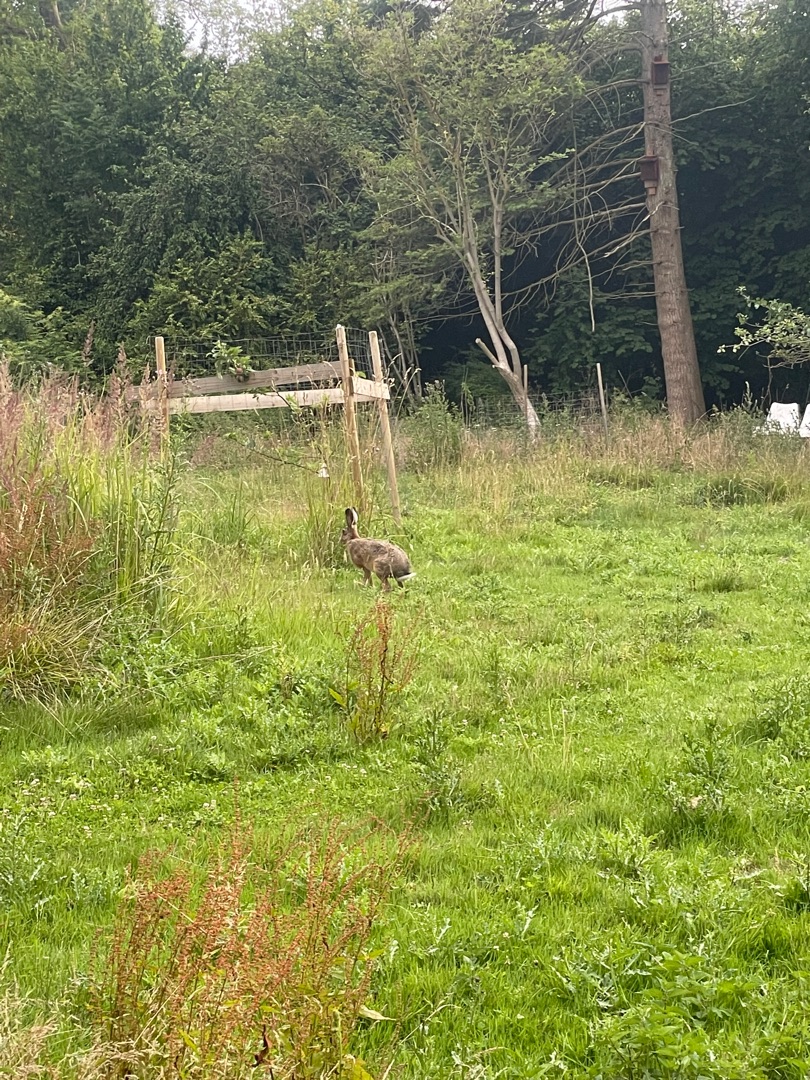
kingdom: Animalia
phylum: Chordata
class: Mammalia
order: Lagomorpha
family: Leporidae
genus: Lepus
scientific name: Lepus europaeus
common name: Hare
